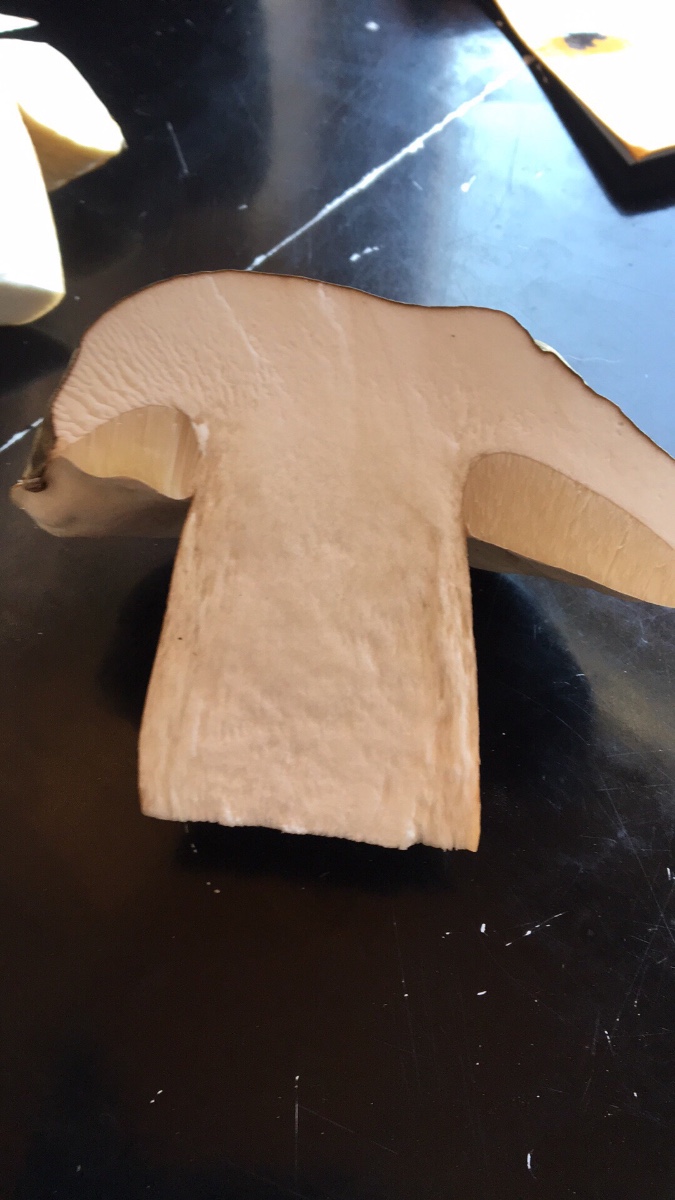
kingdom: Fungi
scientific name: Fungi
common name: bronze-rørhat
